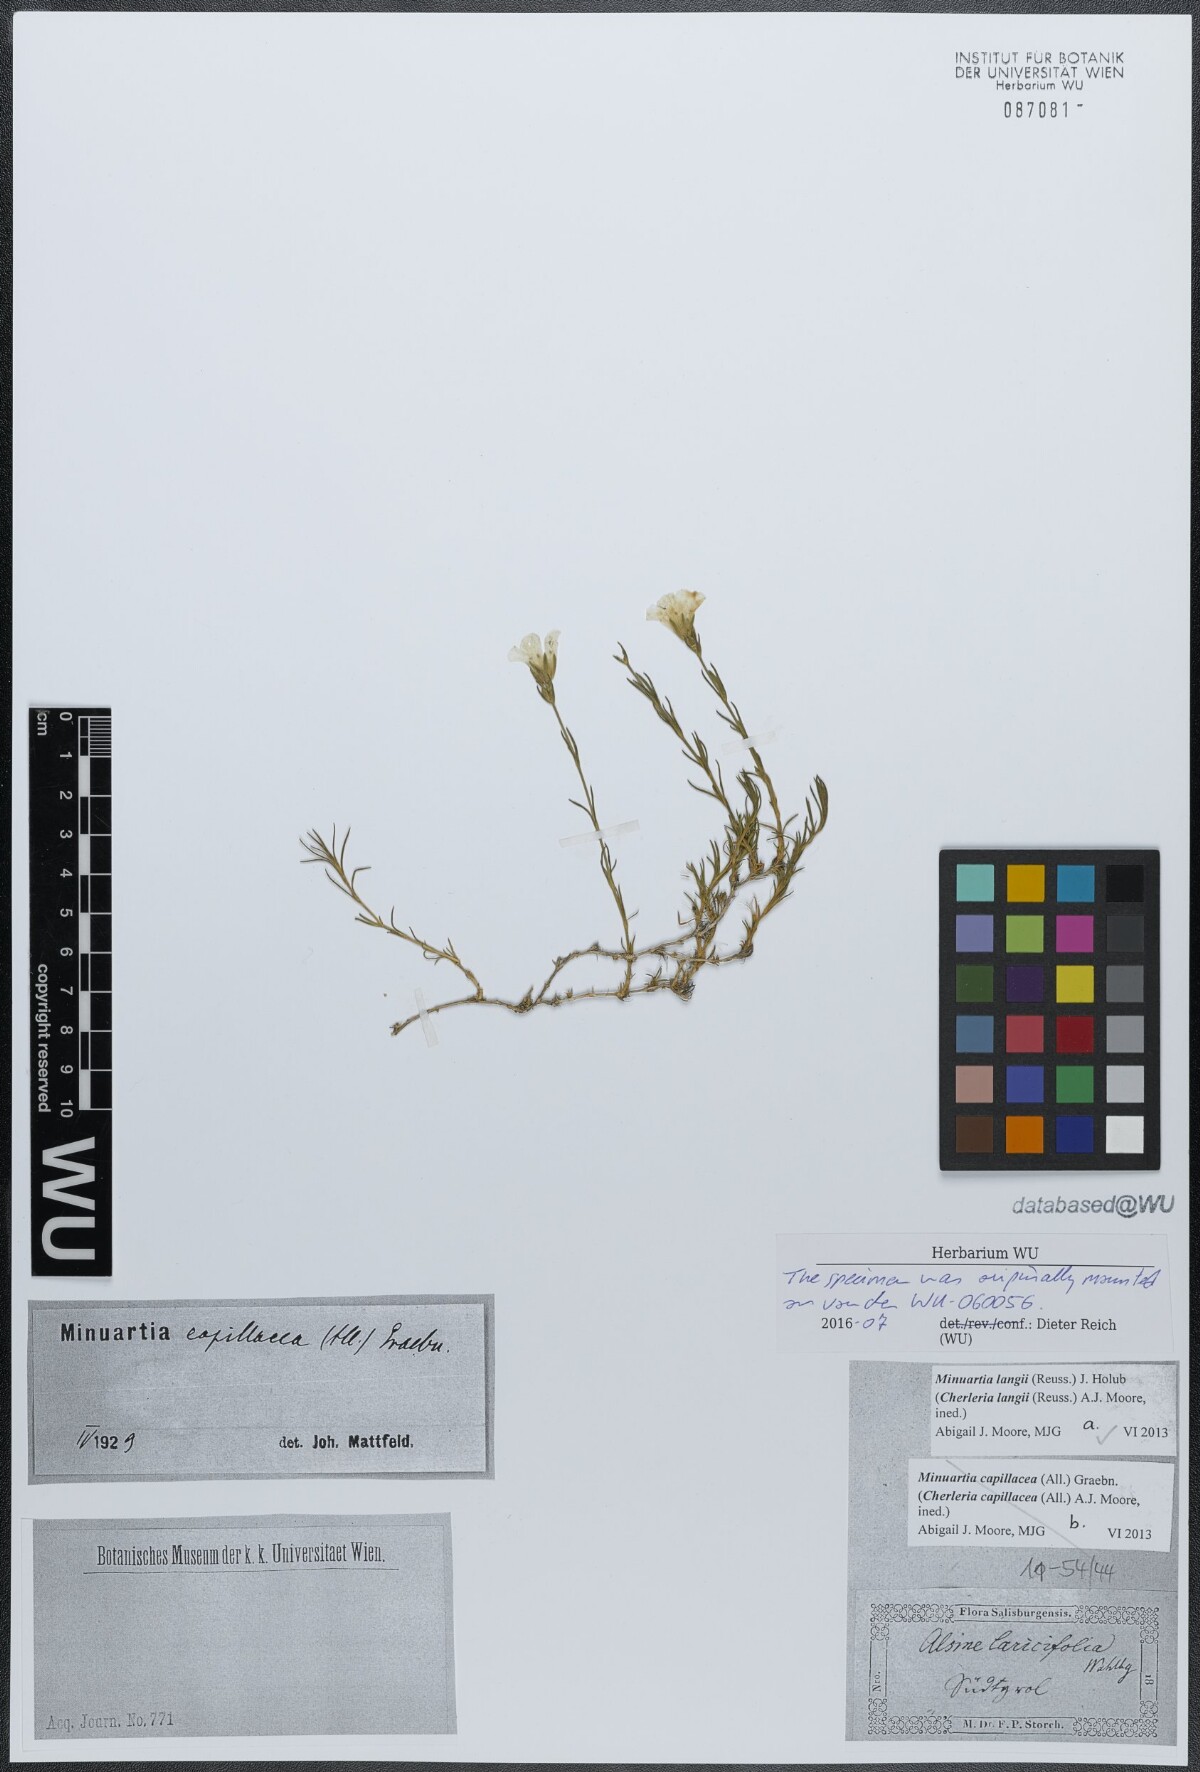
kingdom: Plantae
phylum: Tracheophyta
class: Magnoliopsida
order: Caryophyllales
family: Caryophyllaceae
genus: Cherleria
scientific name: Cherleria langii
